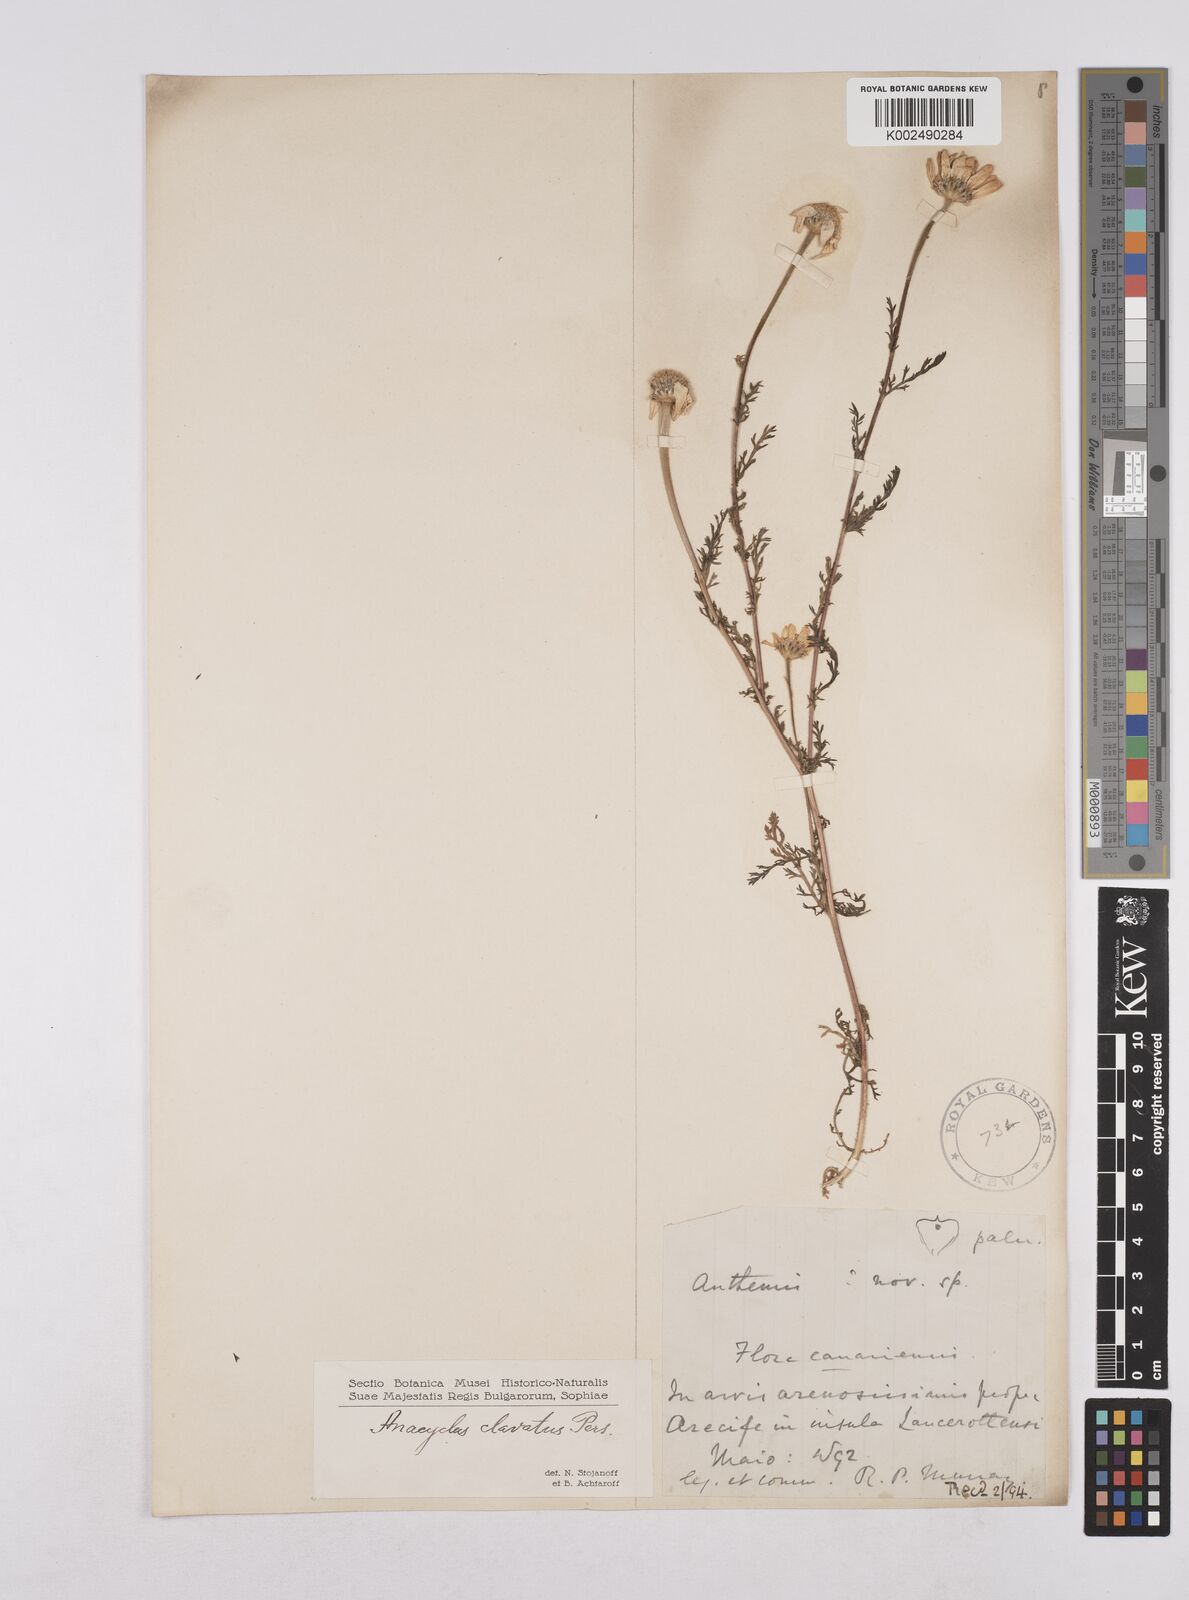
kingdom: Plantae
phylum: Tracheophyta
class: Magnoliopsida
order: Asterales
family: Asteraceae
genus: Chamaemelum
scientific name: Chamaemelum nobile
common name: Roman chamomile
